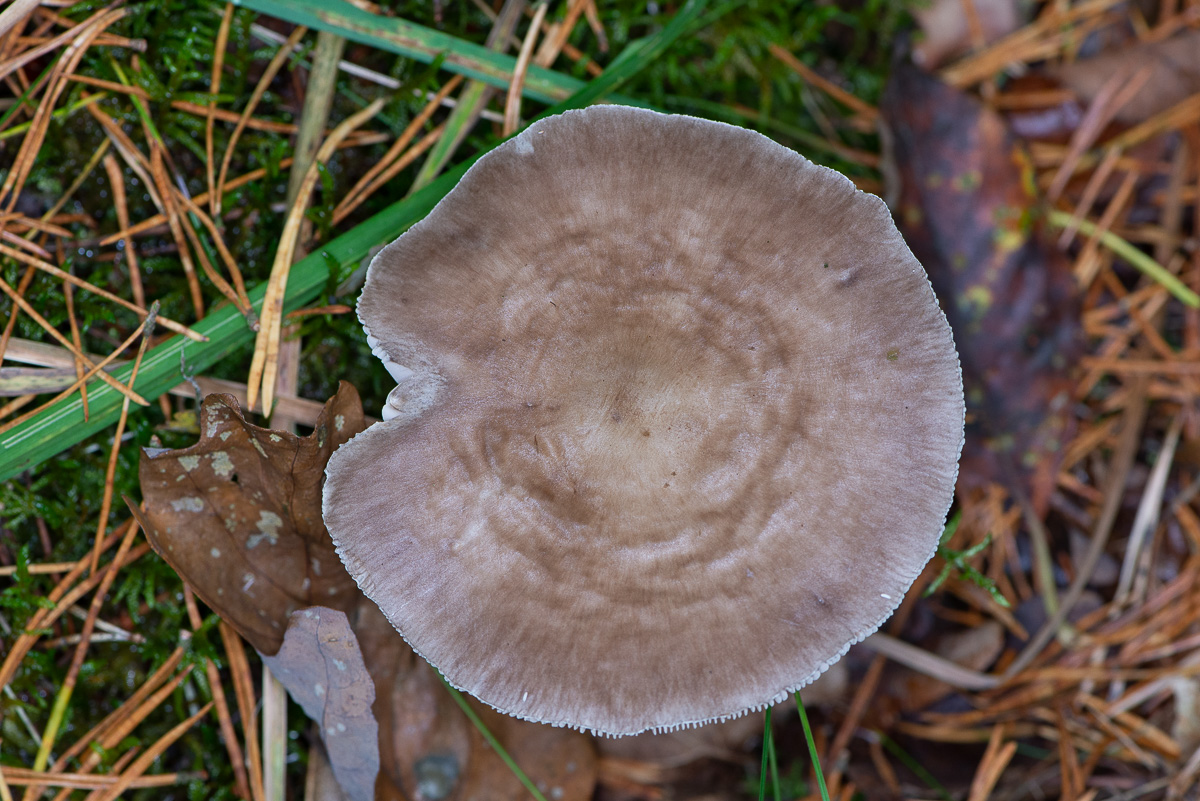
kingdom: Fungi
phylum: Basidiomycota
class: Agaricomycetes
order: Agaricales
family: Pluteaceae
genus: Pluteus
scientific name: Pluteus pouzarianus
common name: plantage-skærmhat
